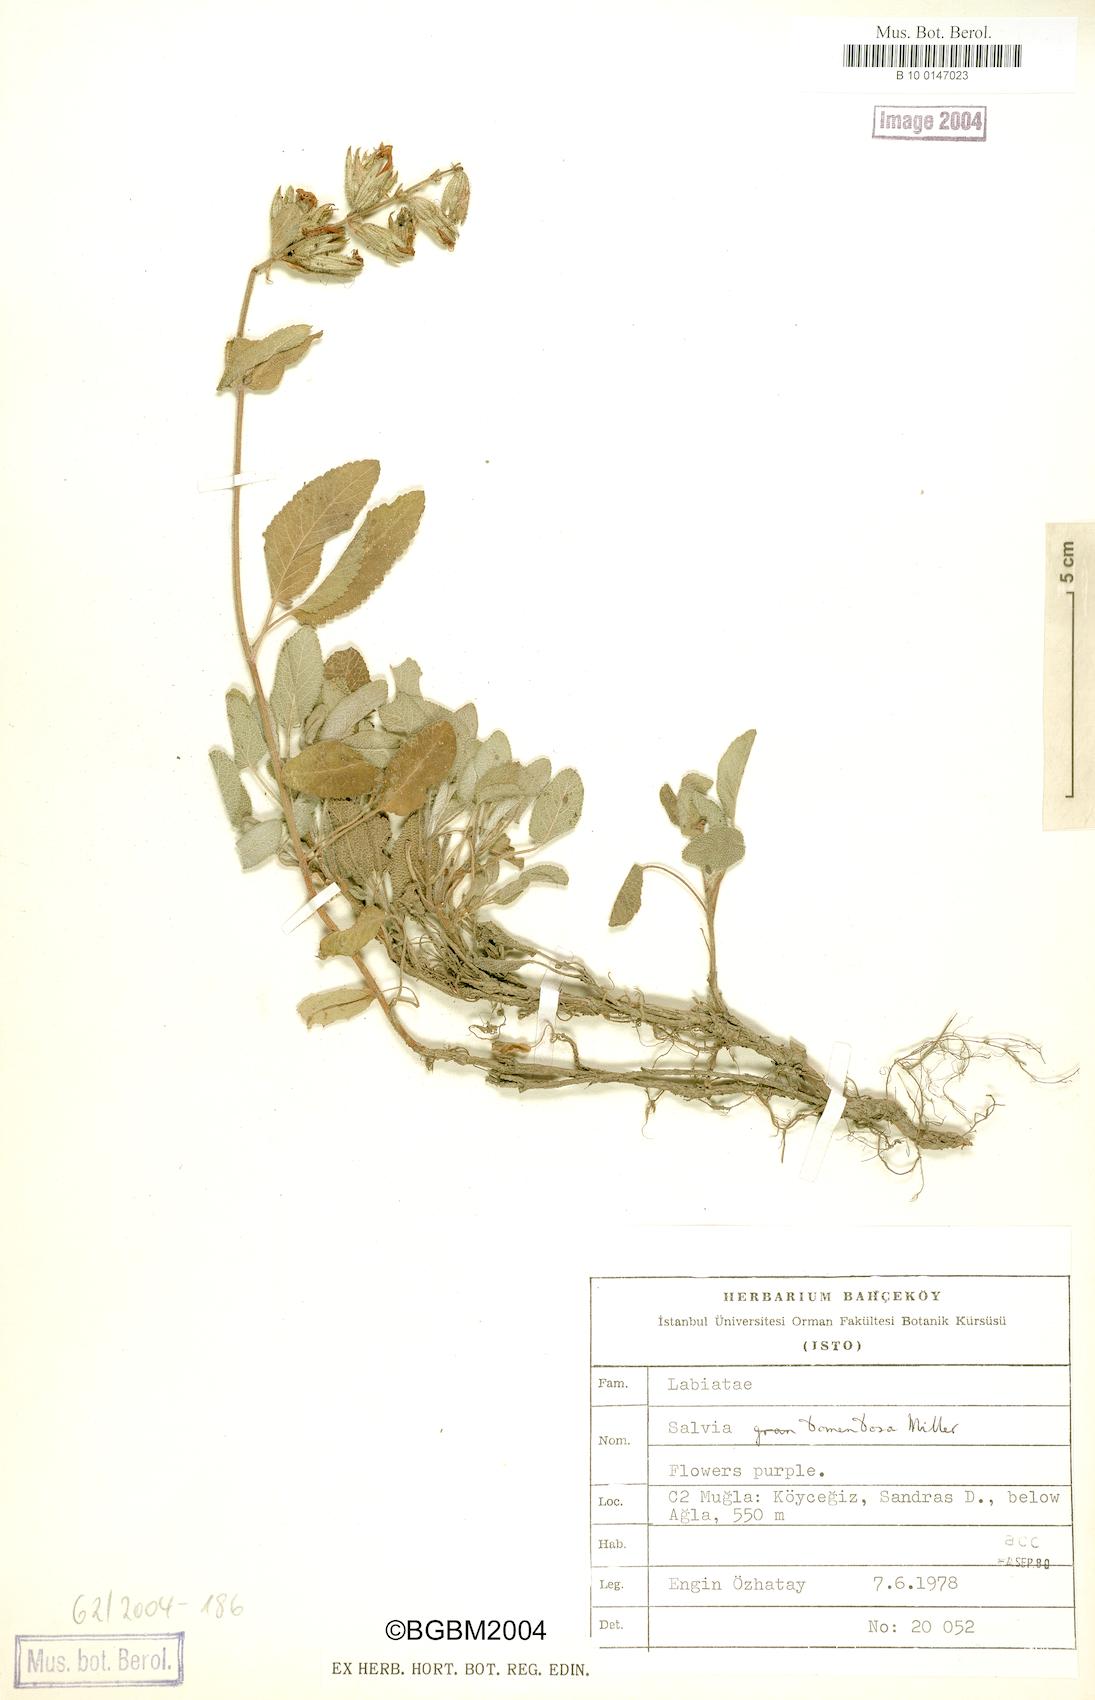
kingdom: Plantae
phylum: Tracheophyta
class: Magnoliopsida
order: Lamiales
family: Lamiaceae
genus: Salvia
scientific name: Salvia tomentosa
